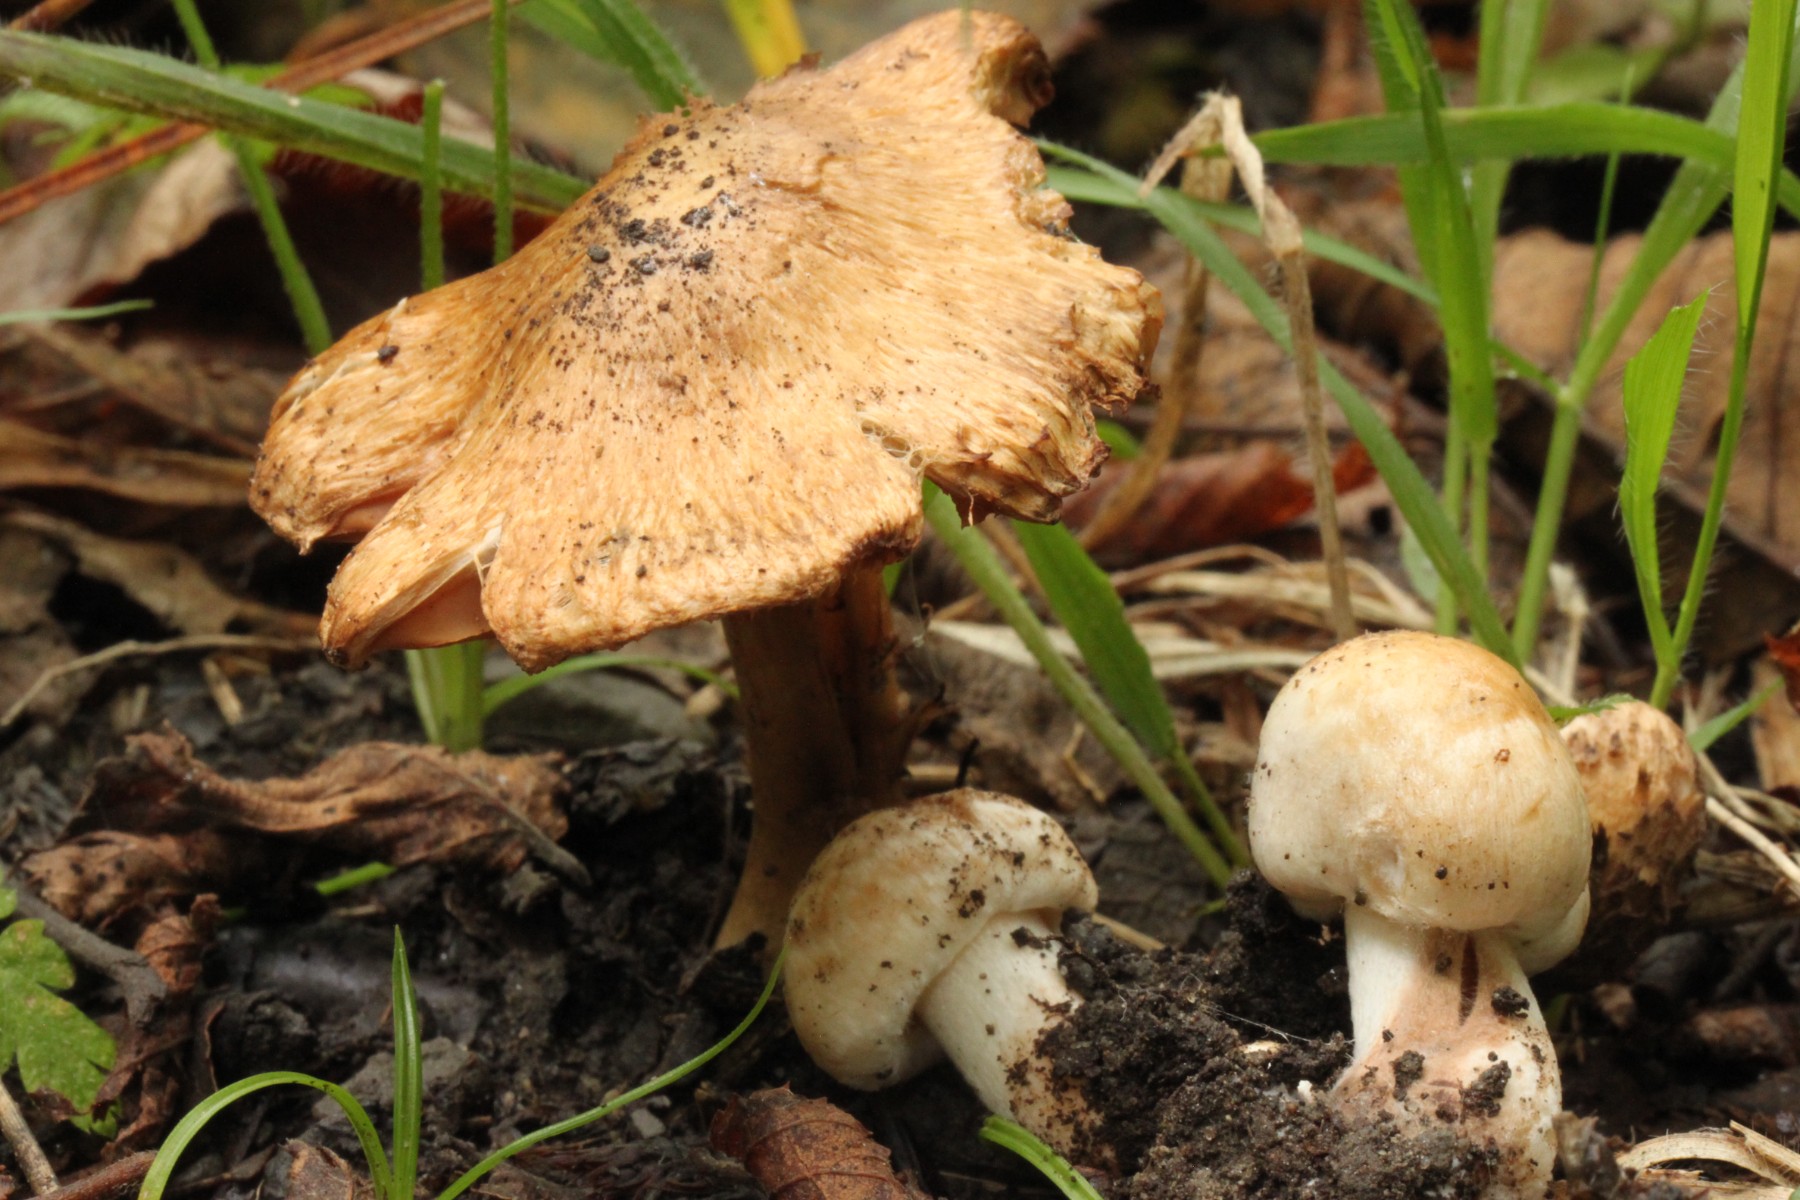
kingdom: Fungi
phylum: Basidiomycota
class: Agaricomycetes
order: Agaricales
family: Inocybaceae
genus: Inocybe
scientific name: Inocybe fraudans
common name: pæreduftende trævlhat
